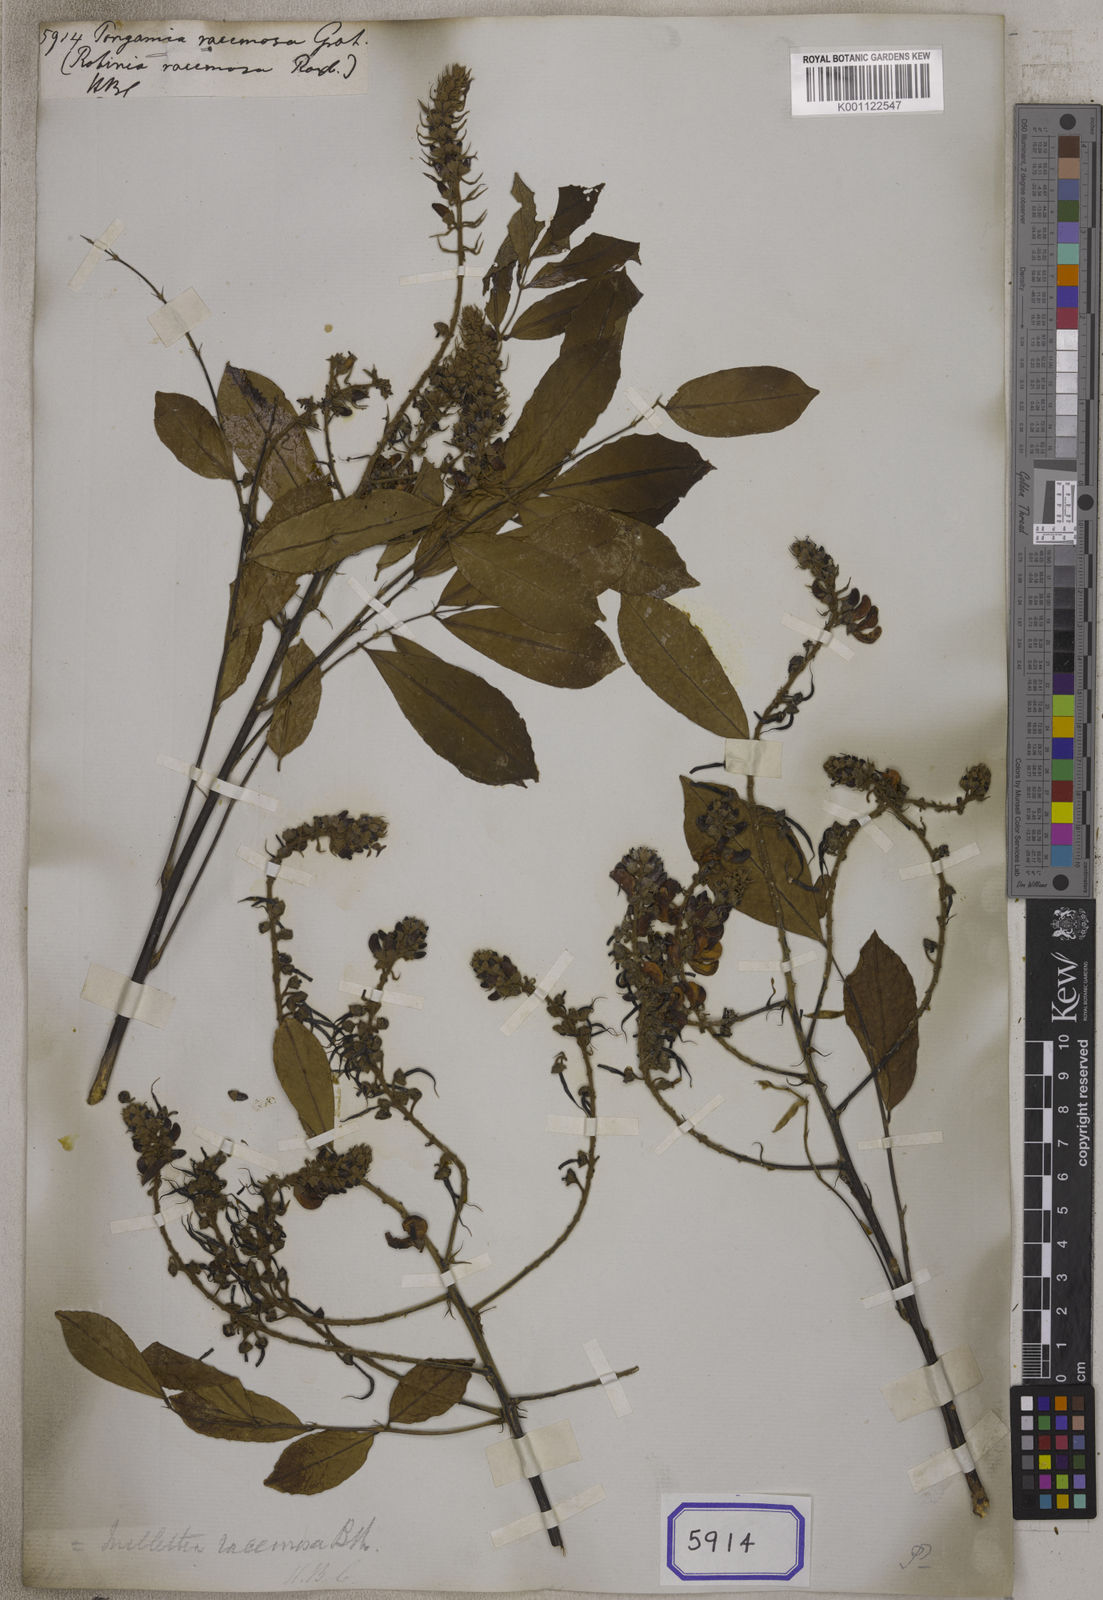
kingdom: Plantae
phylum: Tracheophyta
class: Magnoliopsida
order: Fabales
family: Fabaceae
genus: Endosamara
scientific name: Endosamara racemosa
